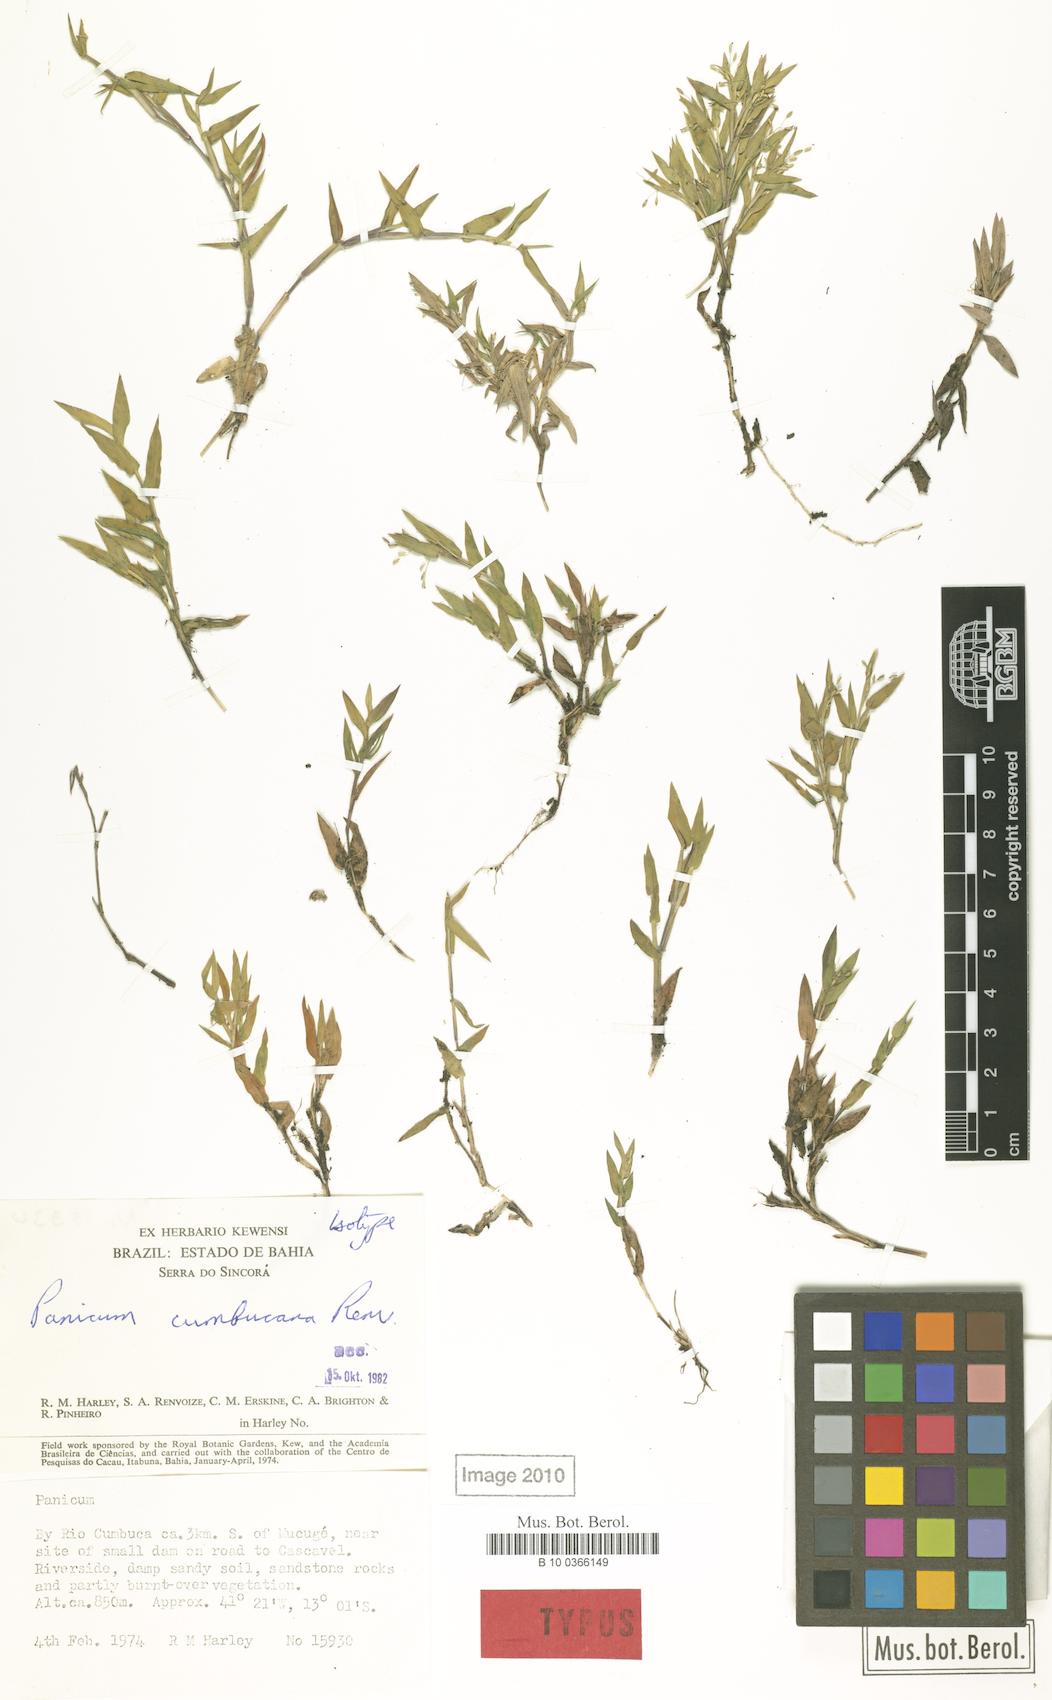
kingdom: Plantae
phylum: Tracheophyta
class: Liliopsida
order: Poales
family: Poaceae
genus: Dichanthelium
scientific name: Dichanthelium cumbucanum
